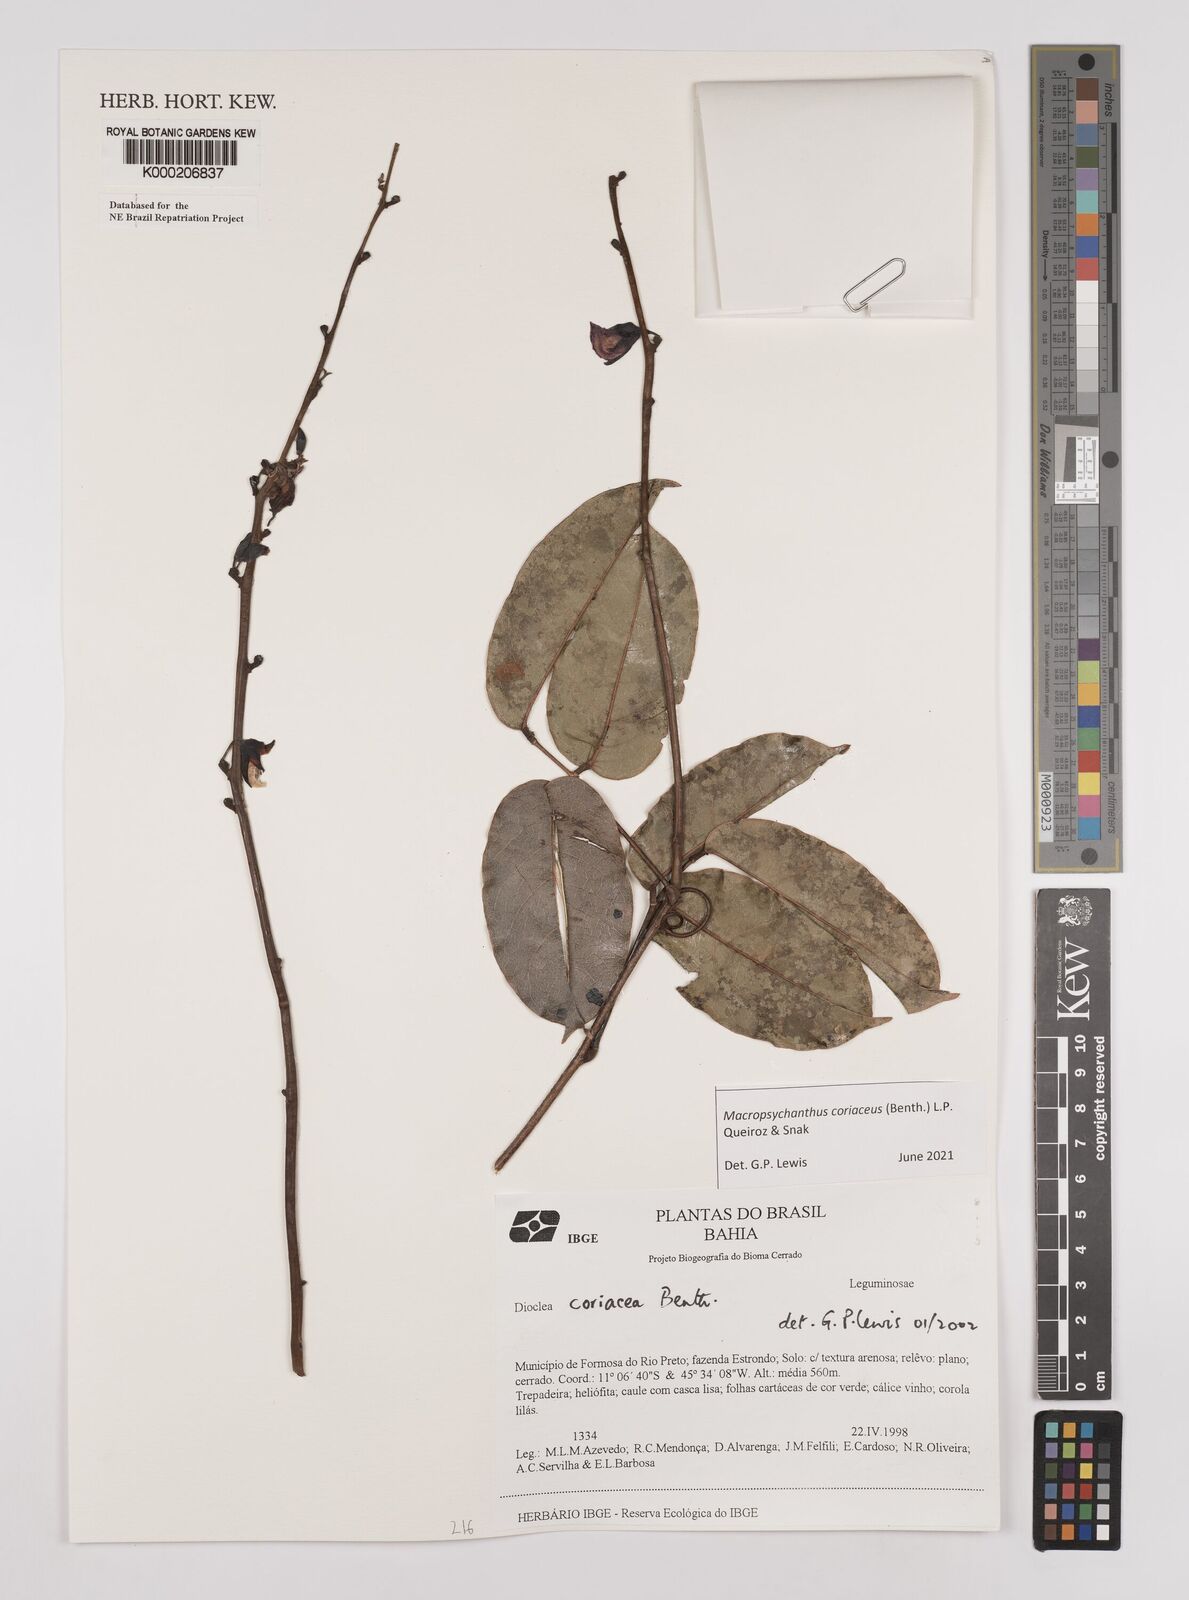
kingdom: Plantae
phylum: Tracheophyta
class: Magnoliopsida
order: Fabales
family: Fabaceae
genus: Macropsychanthus
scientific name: Macropsychanthus coriaceus
